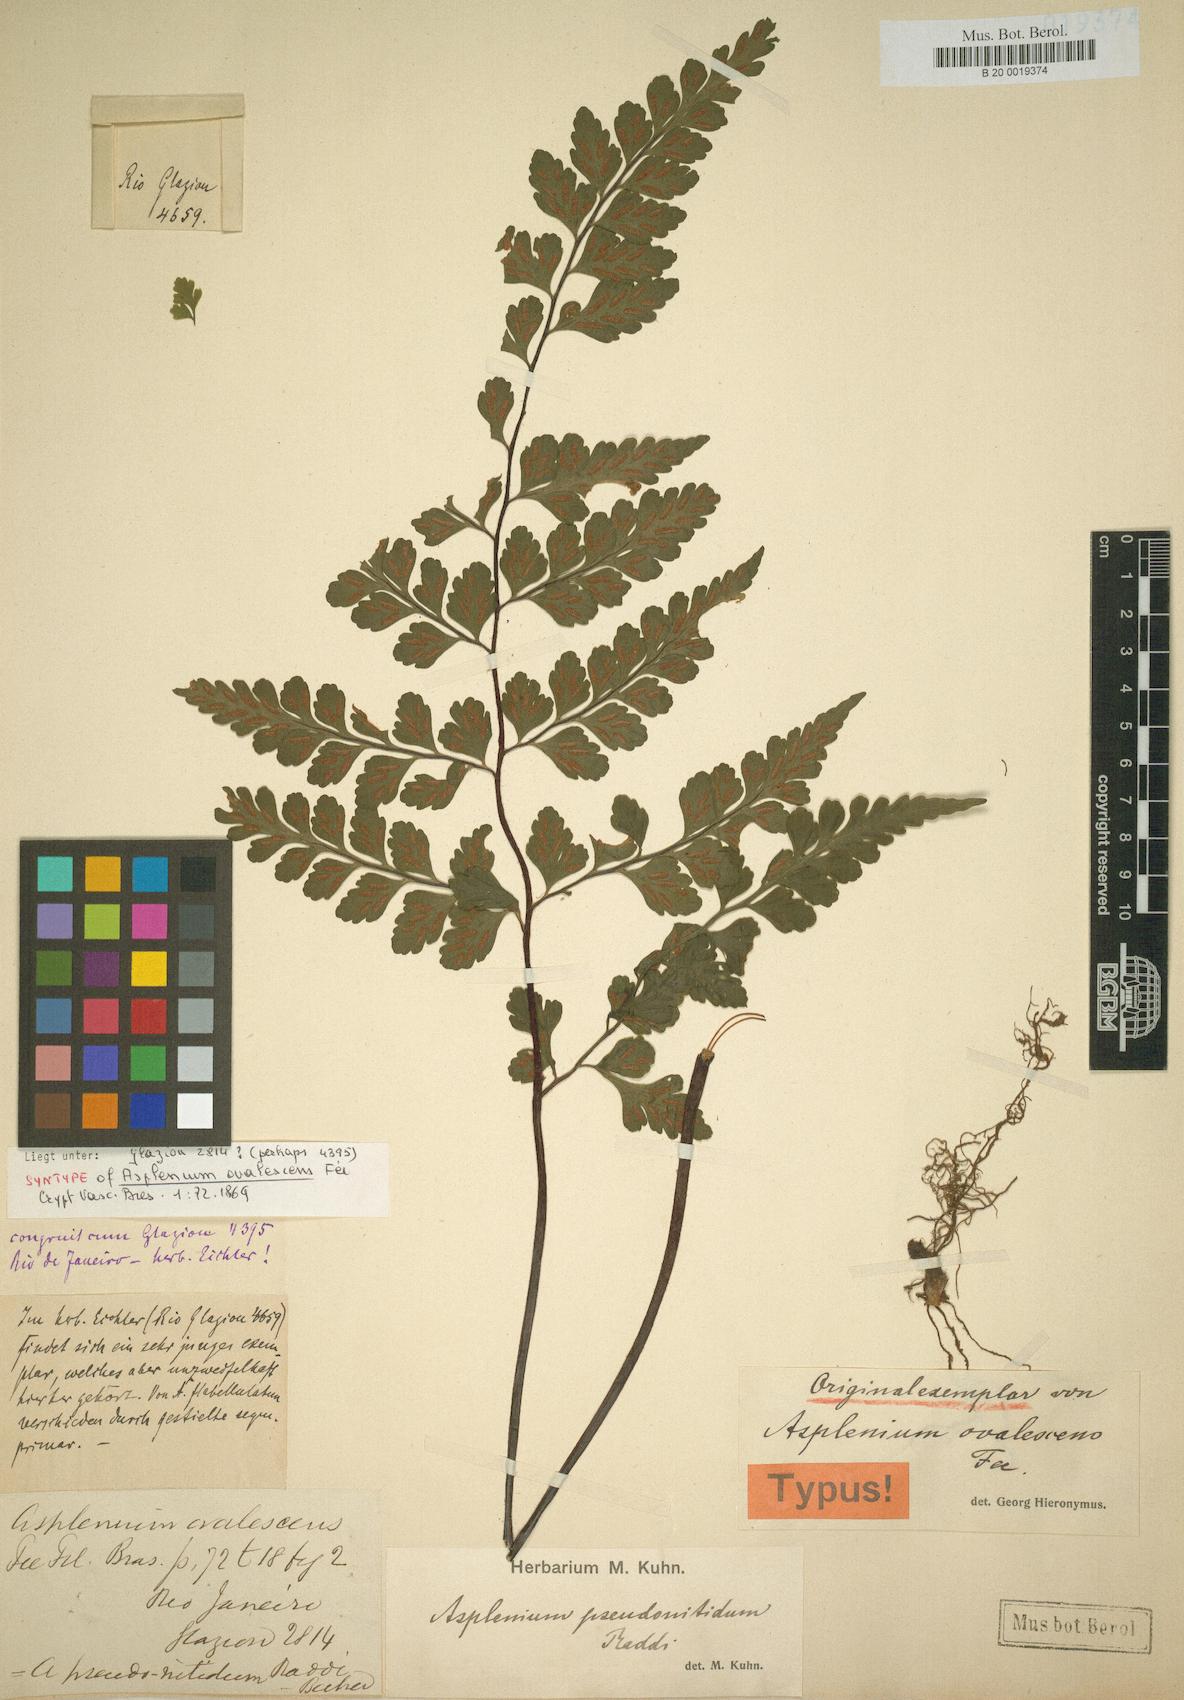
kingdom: Plantae
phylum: Tracheophyta
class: Polypodiopsida
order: Polypodiales
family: Aspleniaceae
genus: Asplenium
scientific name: Asplenium pseudonitidum
